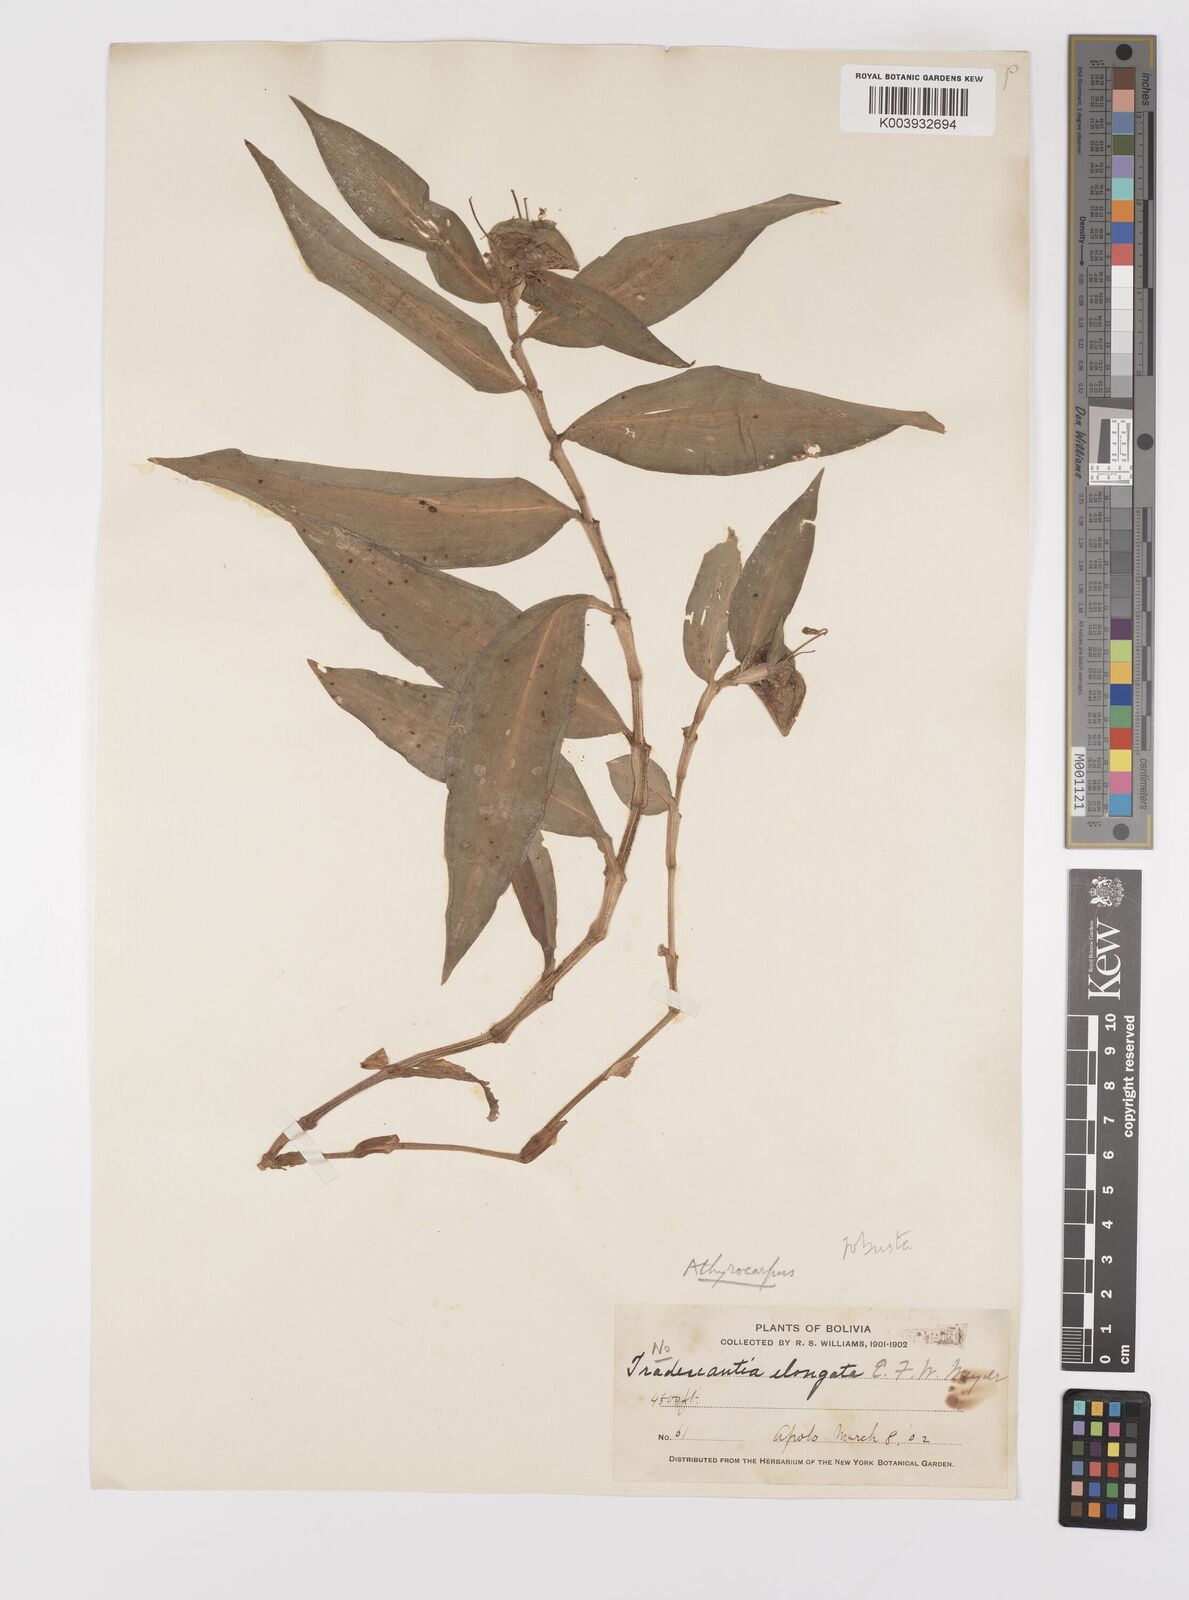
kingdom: Plantae
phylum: Tracheophyta
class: Liliopsida
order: Commelinales
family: Commelinaceae
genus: Commelina
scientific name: Commelina obliqua
